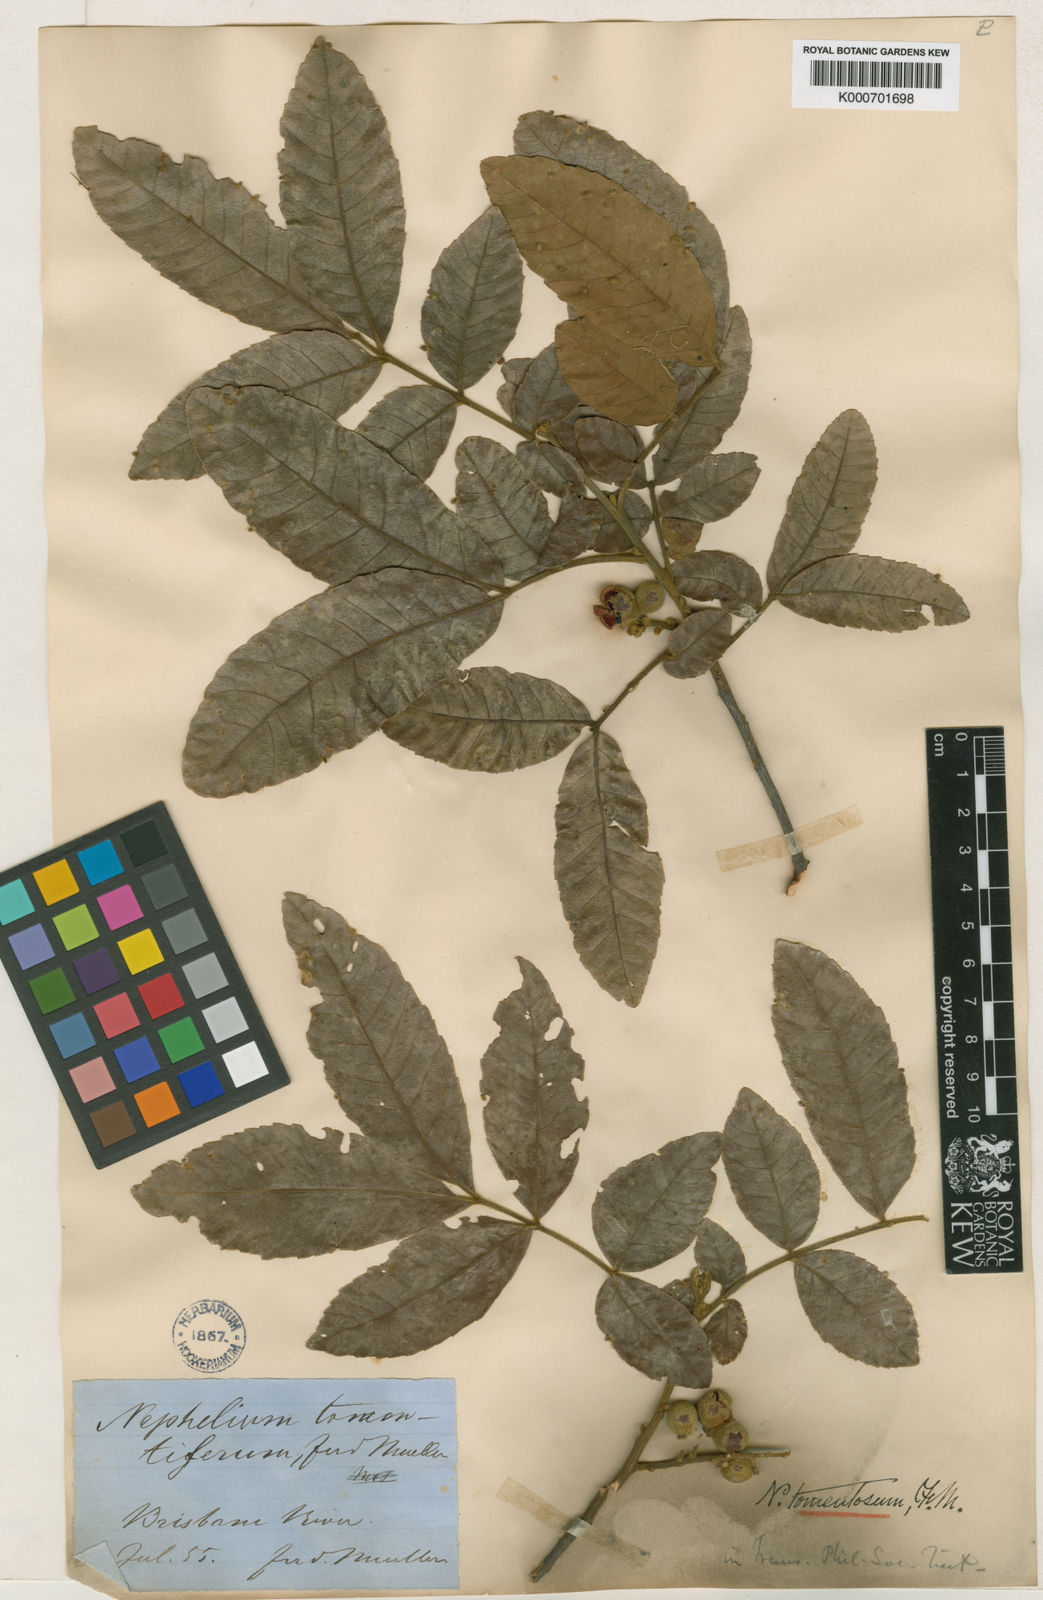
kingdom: Plantae
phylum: Tracheophyta
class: Magnoliopsida
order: Sapindales
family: Sapindaceae
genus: Alectryon
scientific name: Alectryon tomentosus
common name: Bed-jacket
